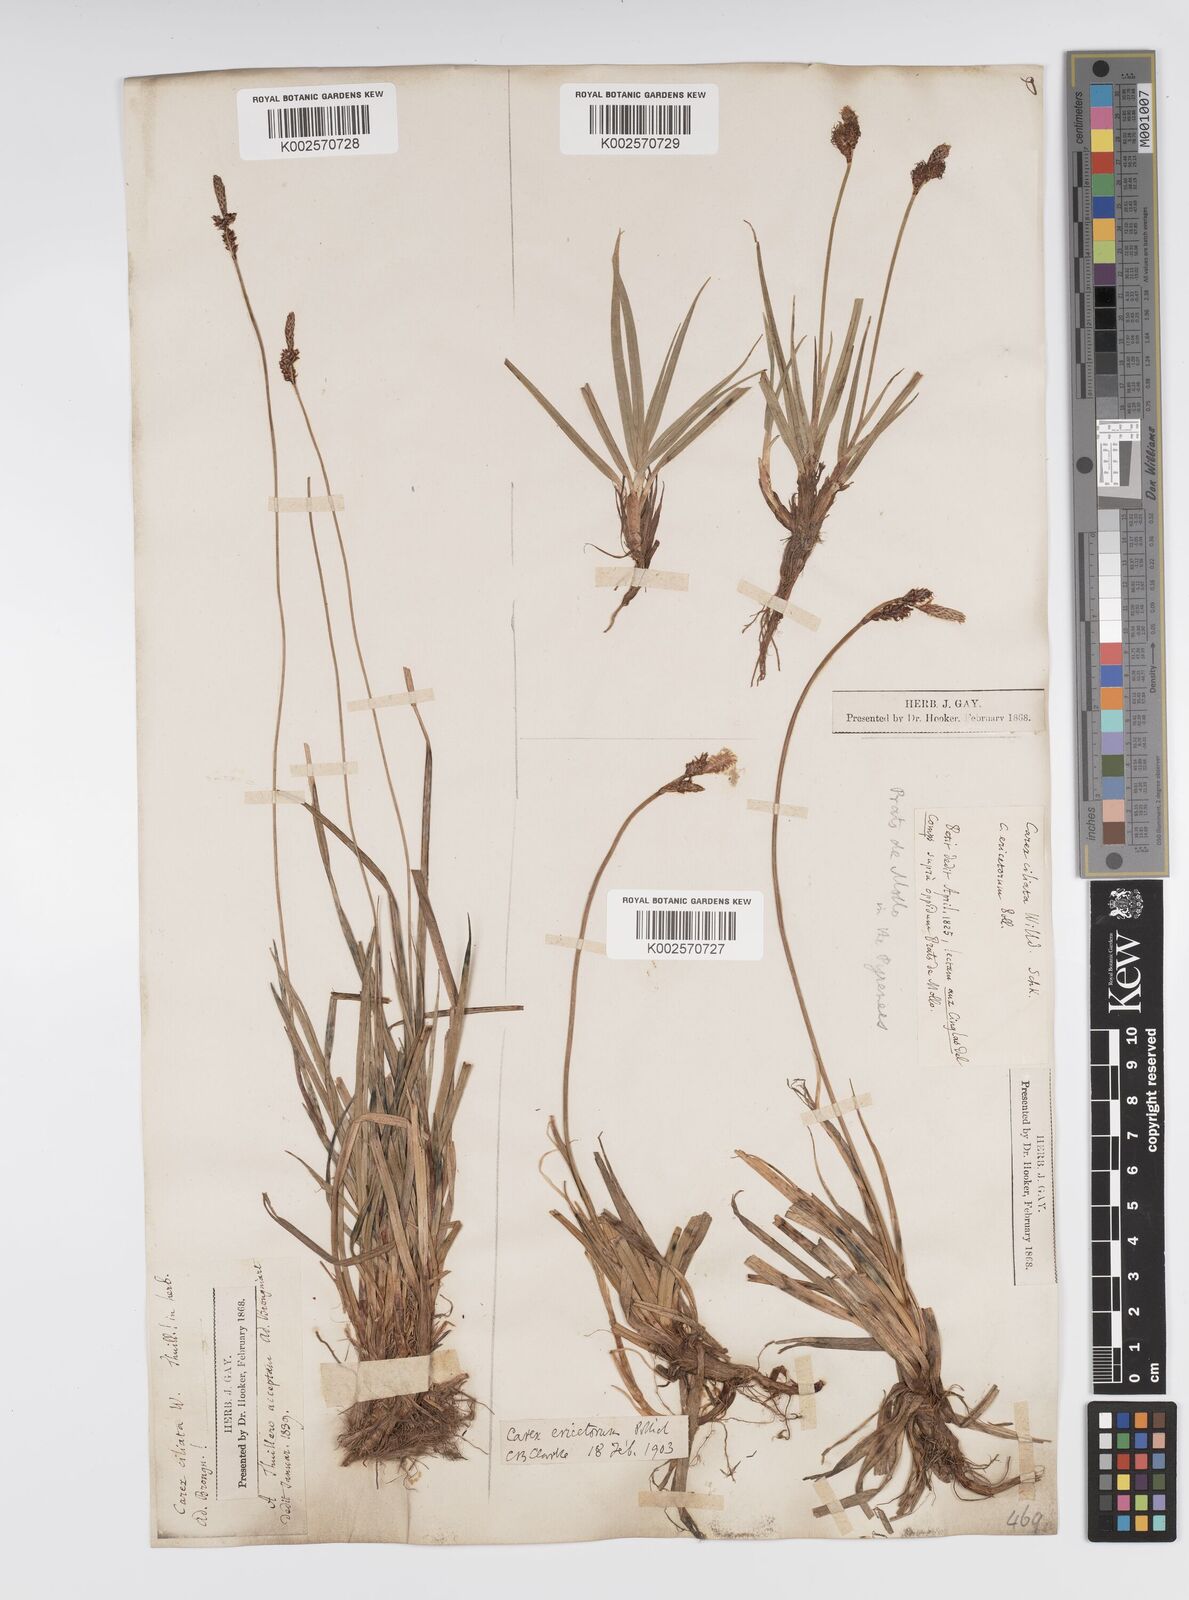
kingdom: Plantae
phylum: Tracheophyta
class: Liliopsida
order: Poales
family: Cyperaceae
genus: Carex
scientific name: Carex ericetorum
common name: Rare spring-sedge
